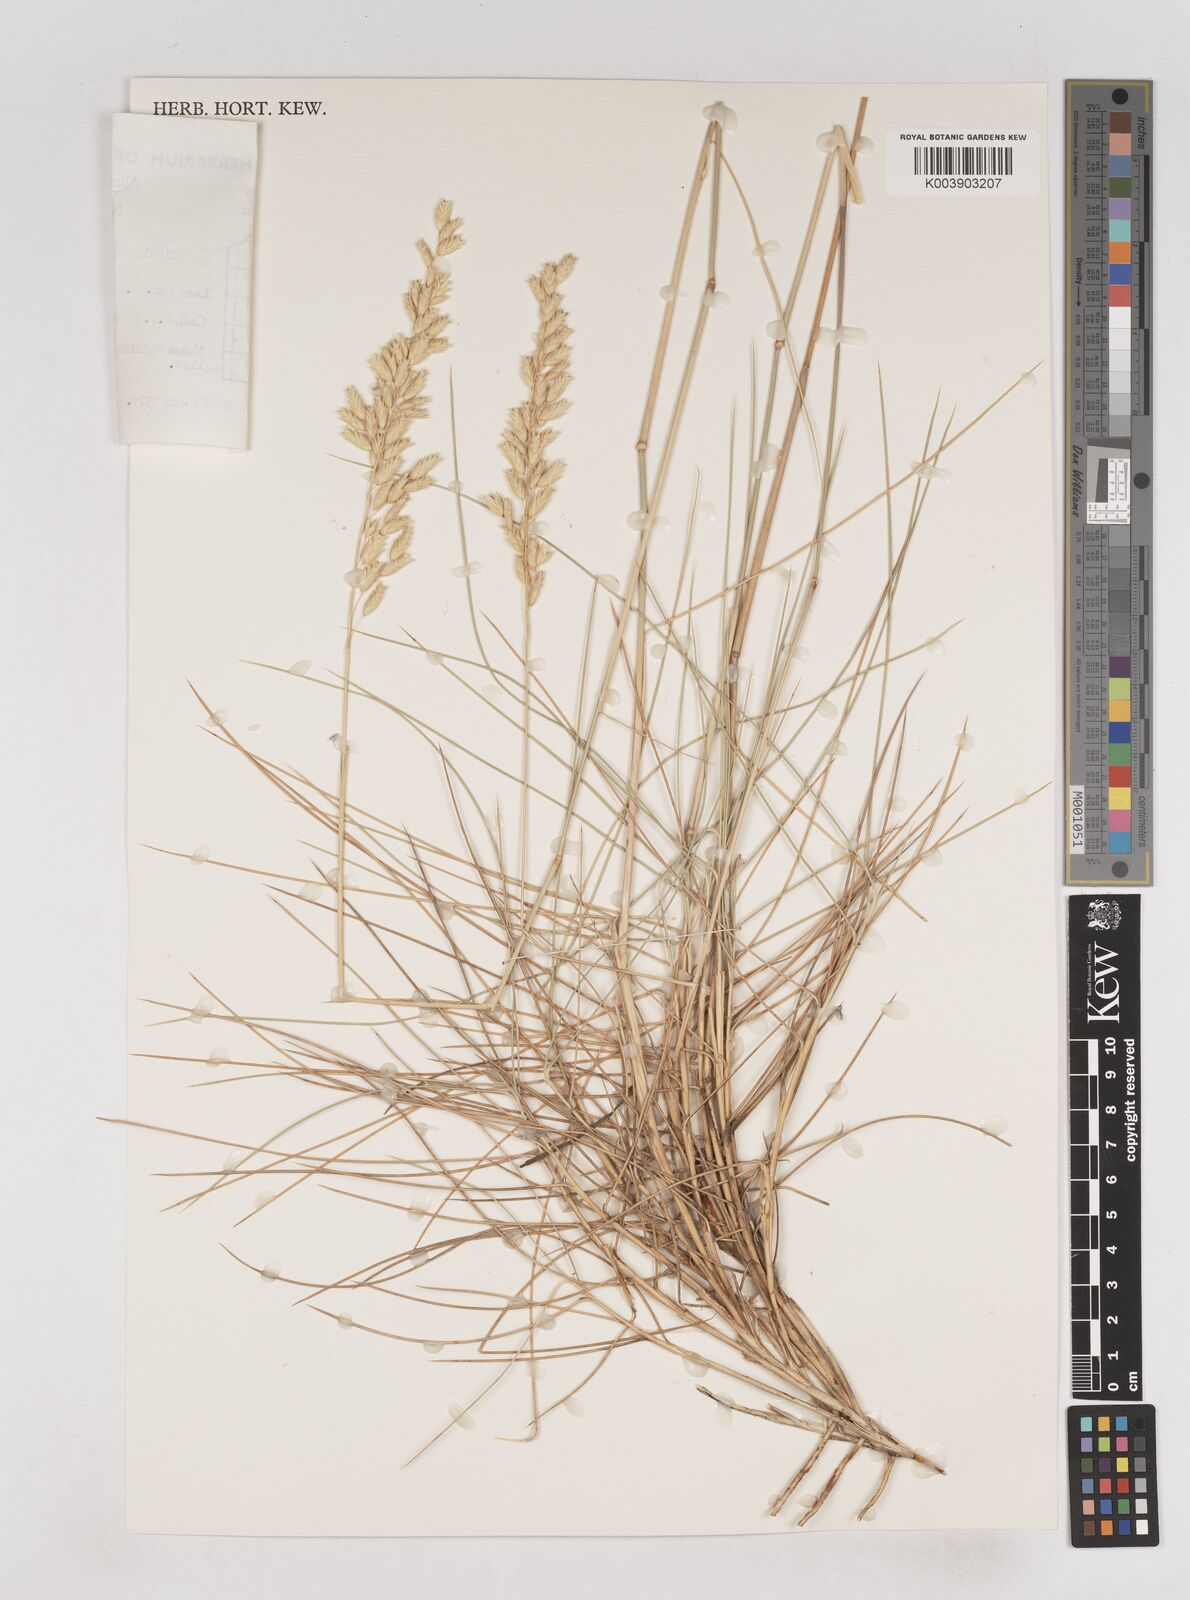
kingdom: Plantae
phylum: Tracheophyta
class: Liliopsida
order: Poales
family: Poaceae
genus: Triodia
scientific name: Triodia basedowii
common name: Hard spinifex
